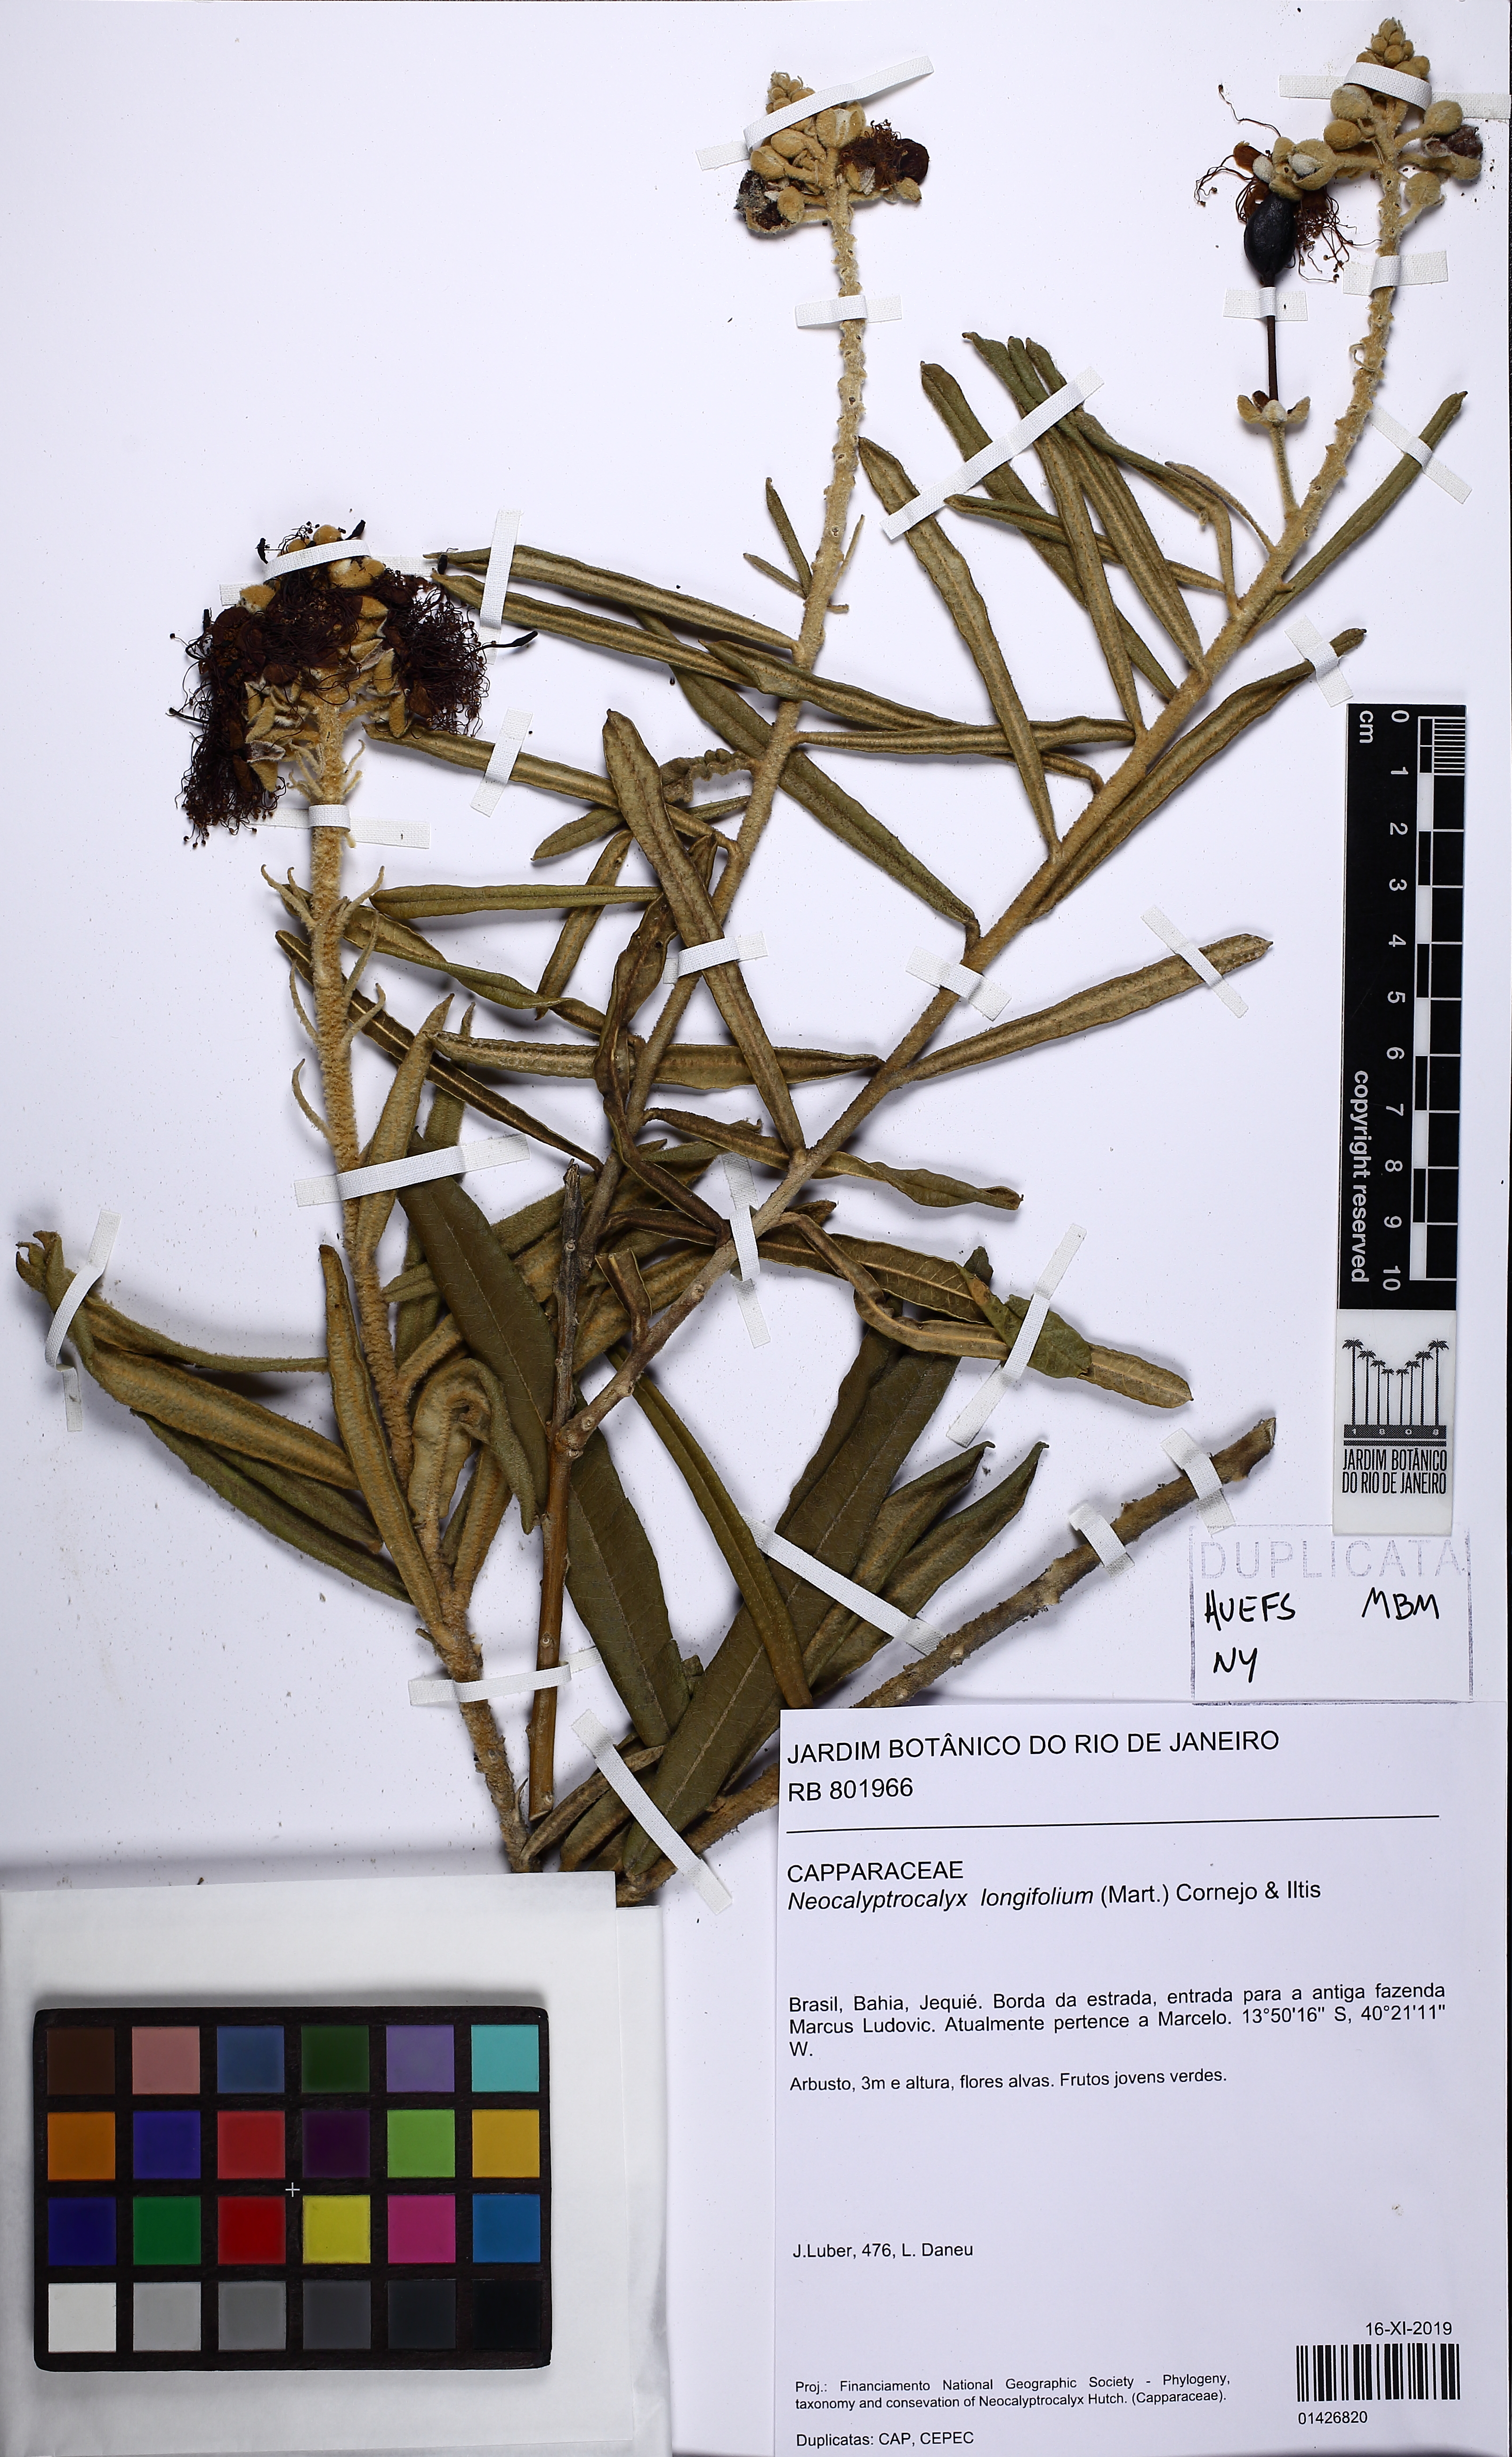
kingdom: Plantae
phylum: Tracheophyta
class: Magnoliopsida
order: Brassicales
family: Capparaceae
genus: Neocalyptrocalyx
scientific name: Neocalyptrocalyx longifolium
